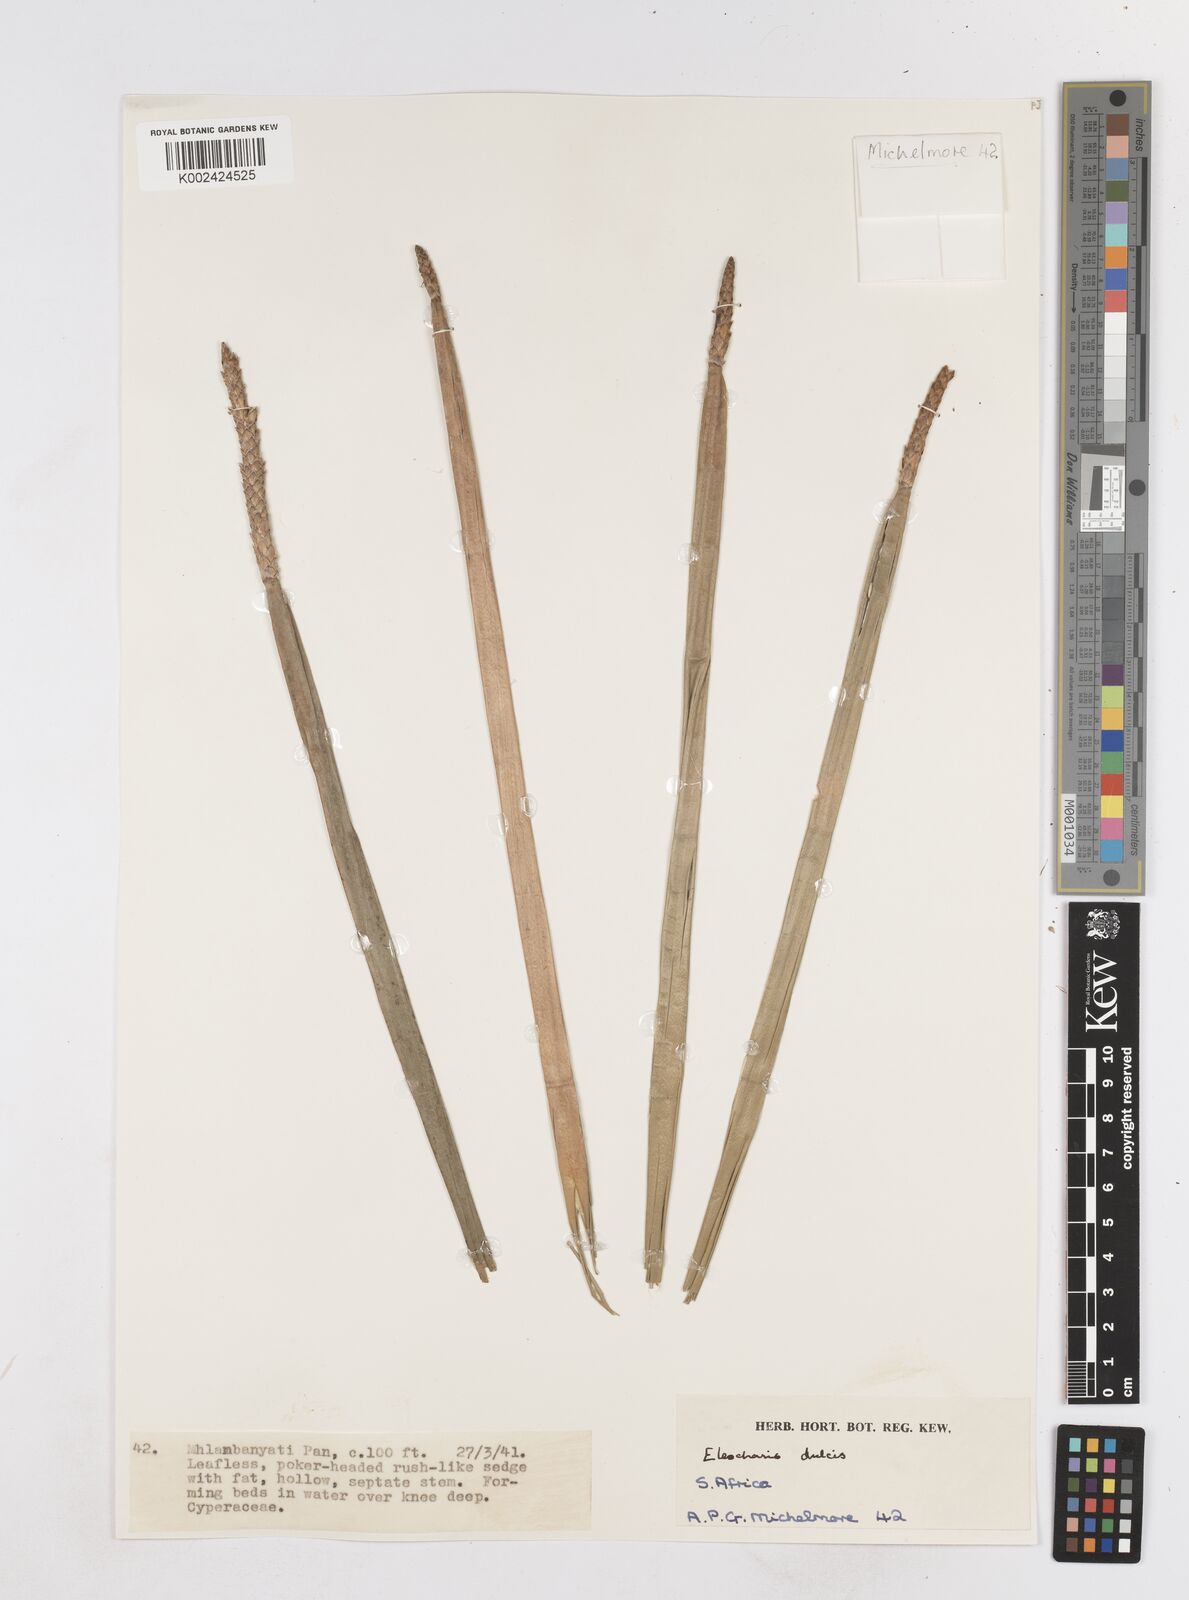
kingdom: Plantae
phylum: Tracheophyta
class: Liliopsida
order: Poales
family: Cyperaceae
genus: Eleocharis
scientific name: Eleocharis dulcis
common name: Chinese water chestnut
